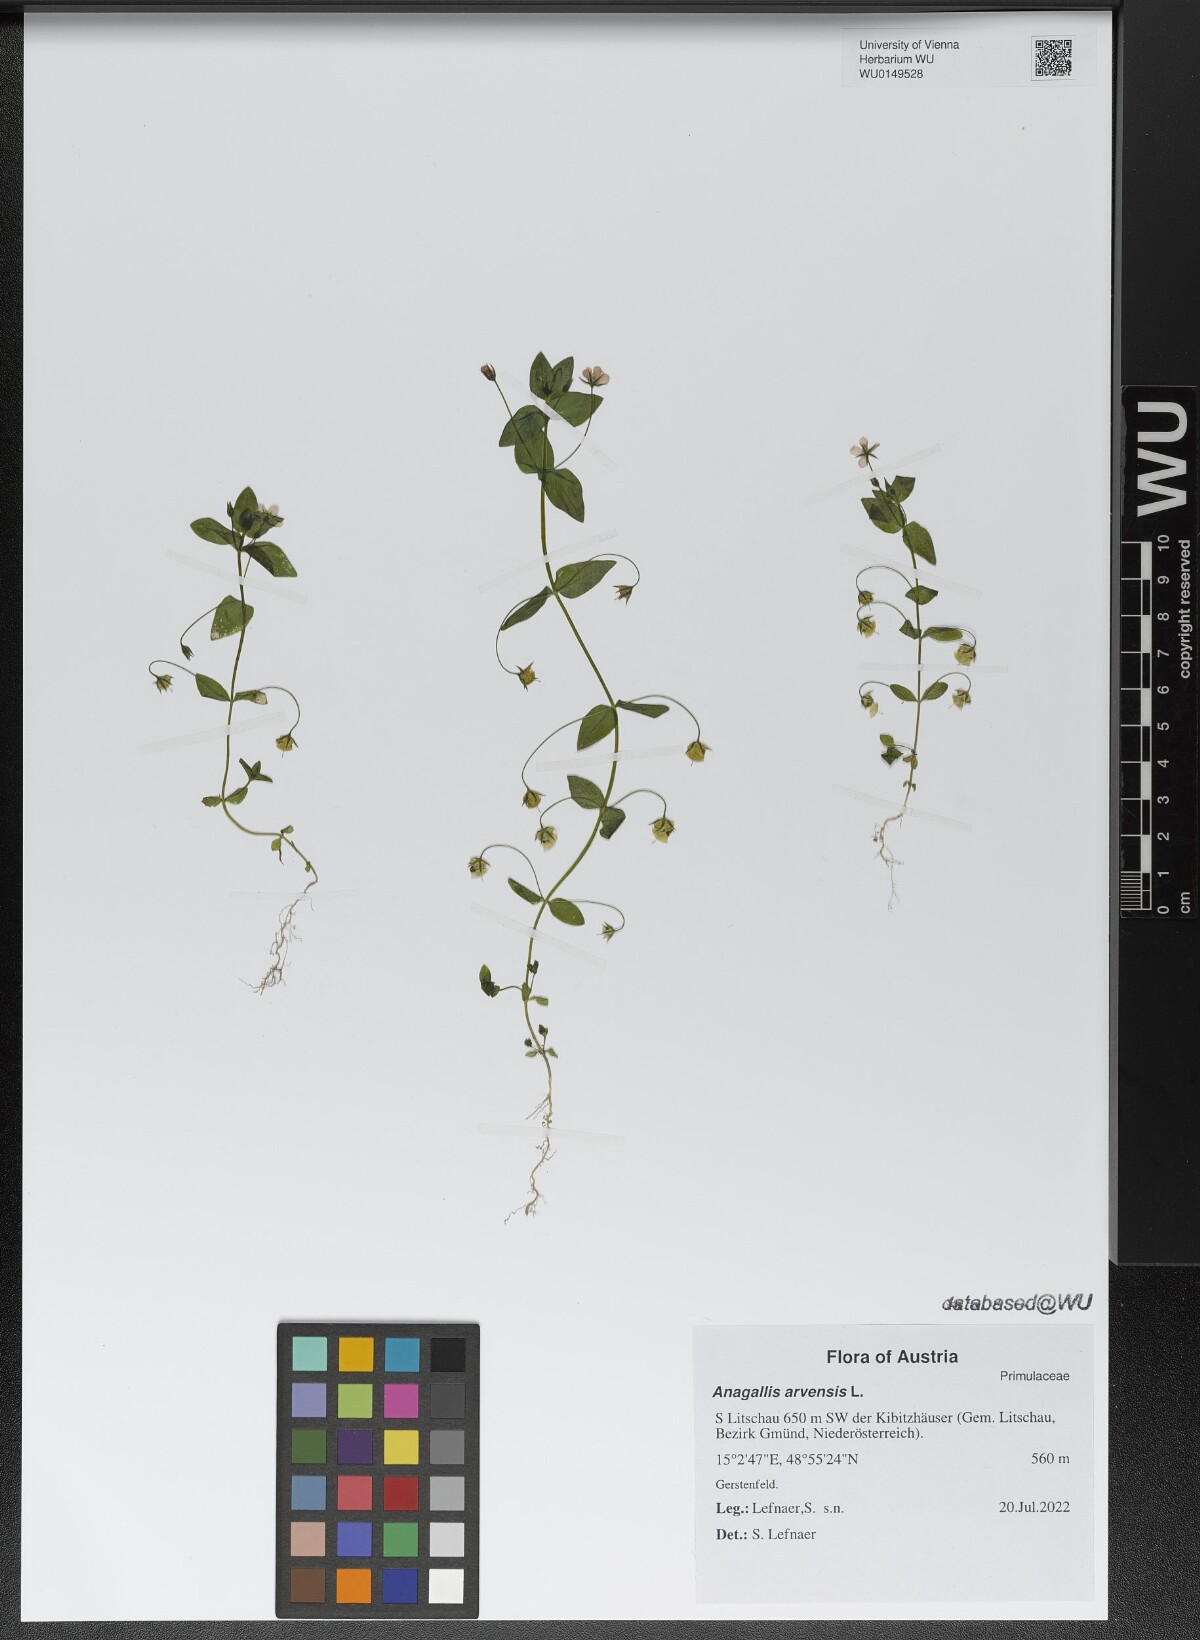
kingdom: Plantae
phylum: Tracheophyta
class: Magnoliopsida
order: Ericales
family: Primulaceae
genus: Lysimachia
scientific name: Lysimachia arvensis
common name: Scarlet pimpernel
